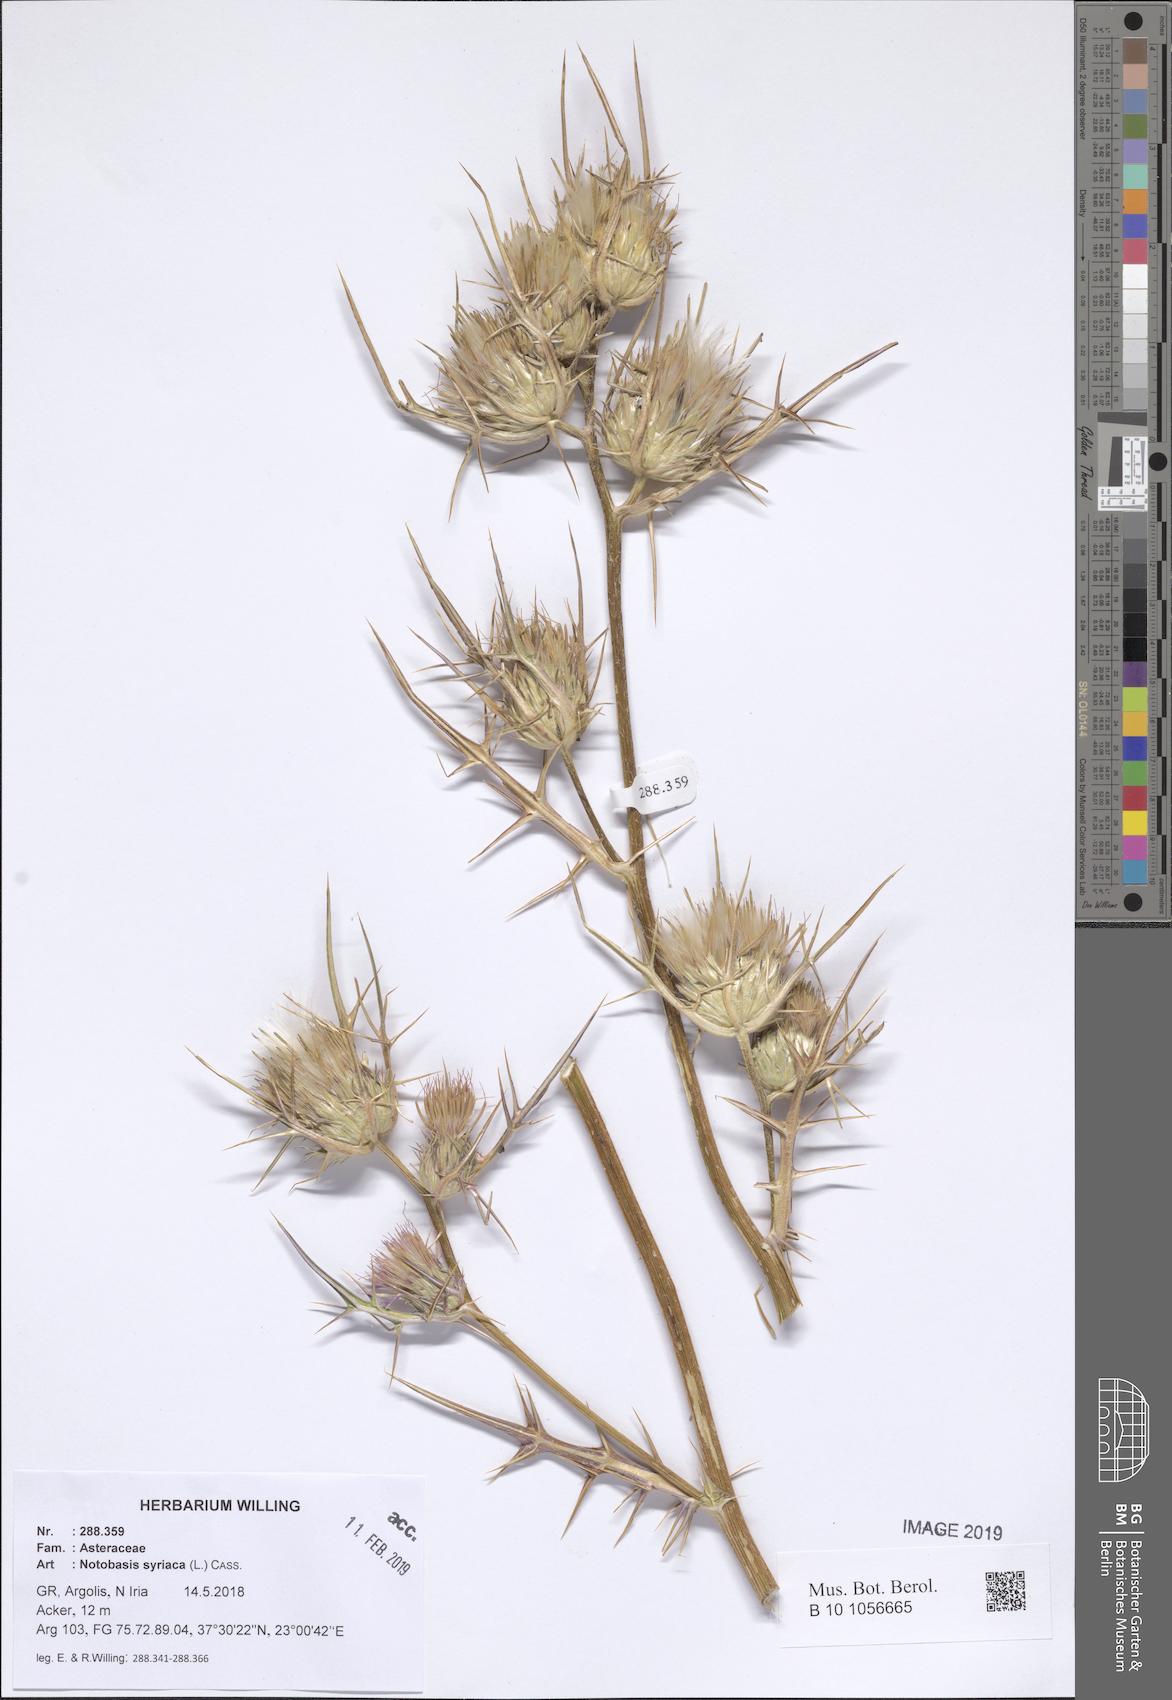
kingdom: Plantae
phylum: Tracheophyta
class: Magnoliopsida
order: Asterales
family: Asteraceae
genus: Notobasis
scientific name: Notobasis syriaca
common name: Syrian thistle
